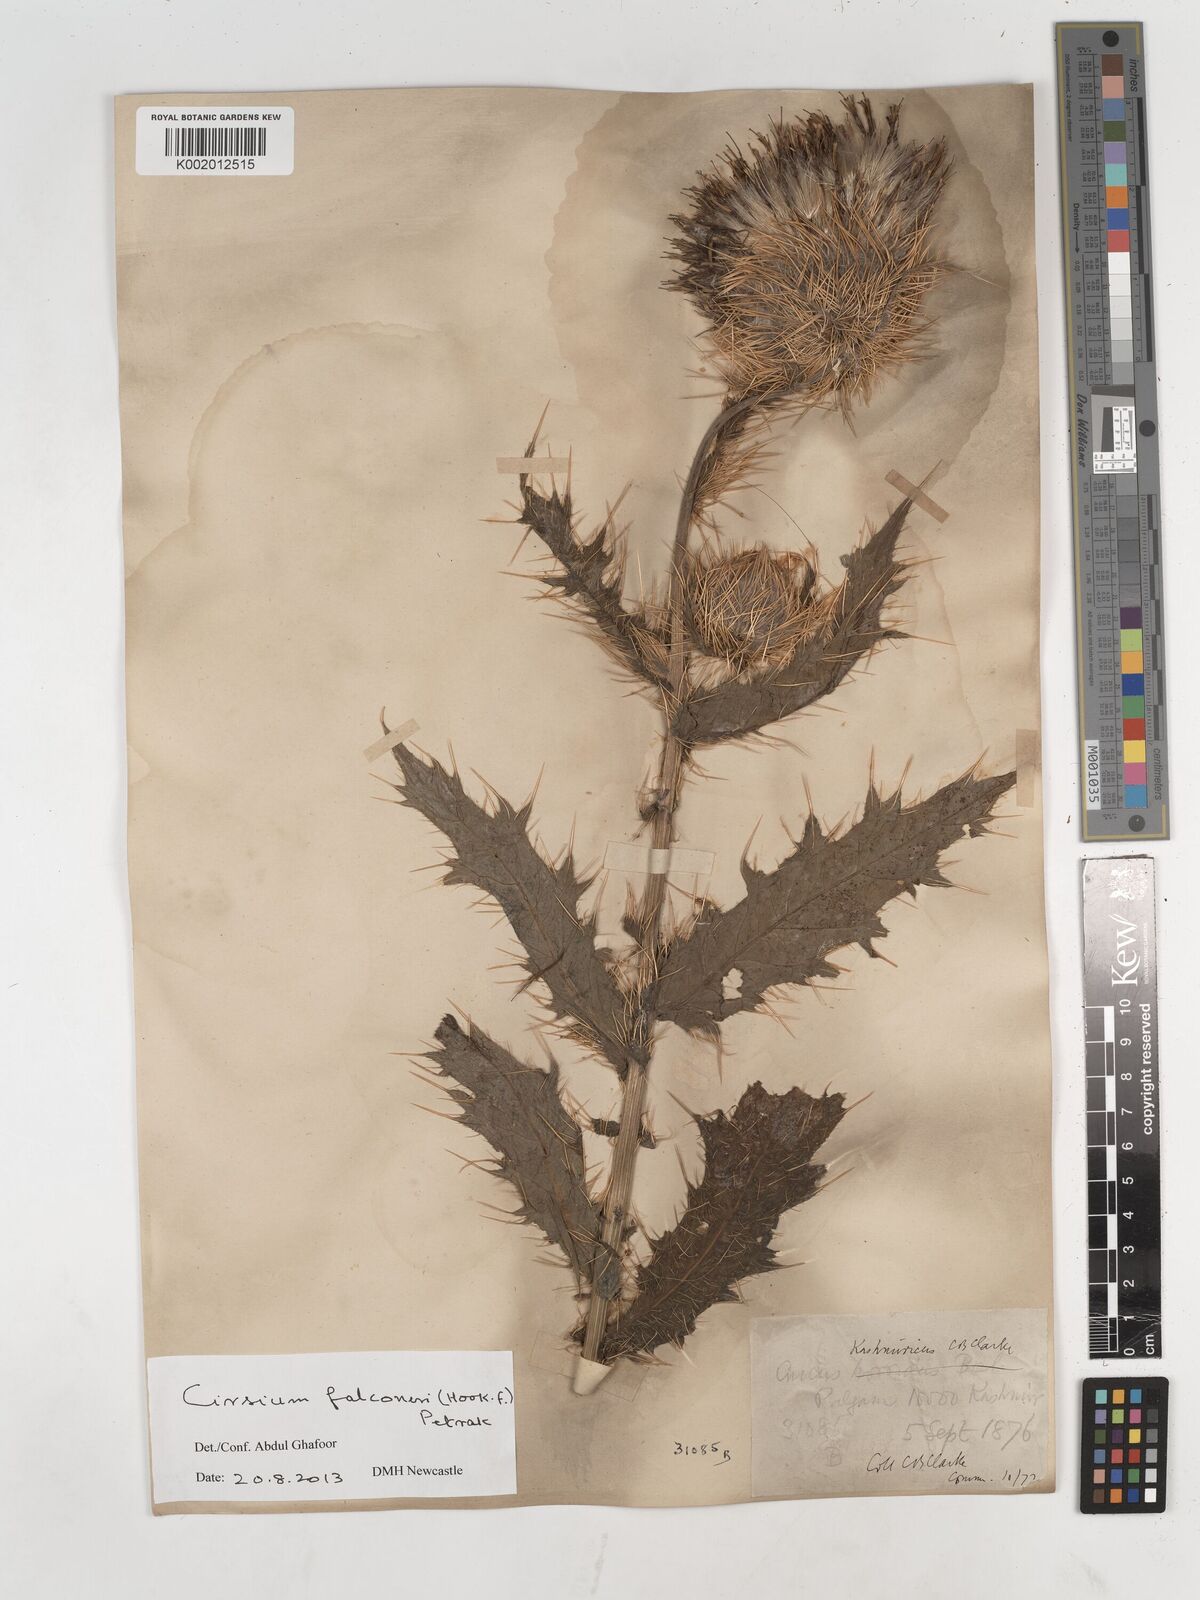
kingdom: Plantae
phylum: Tracheophyta
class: Magnoliopsida
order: Asterales
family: Asteraceae
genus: Cirsium
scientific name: Cirsium falconeri
